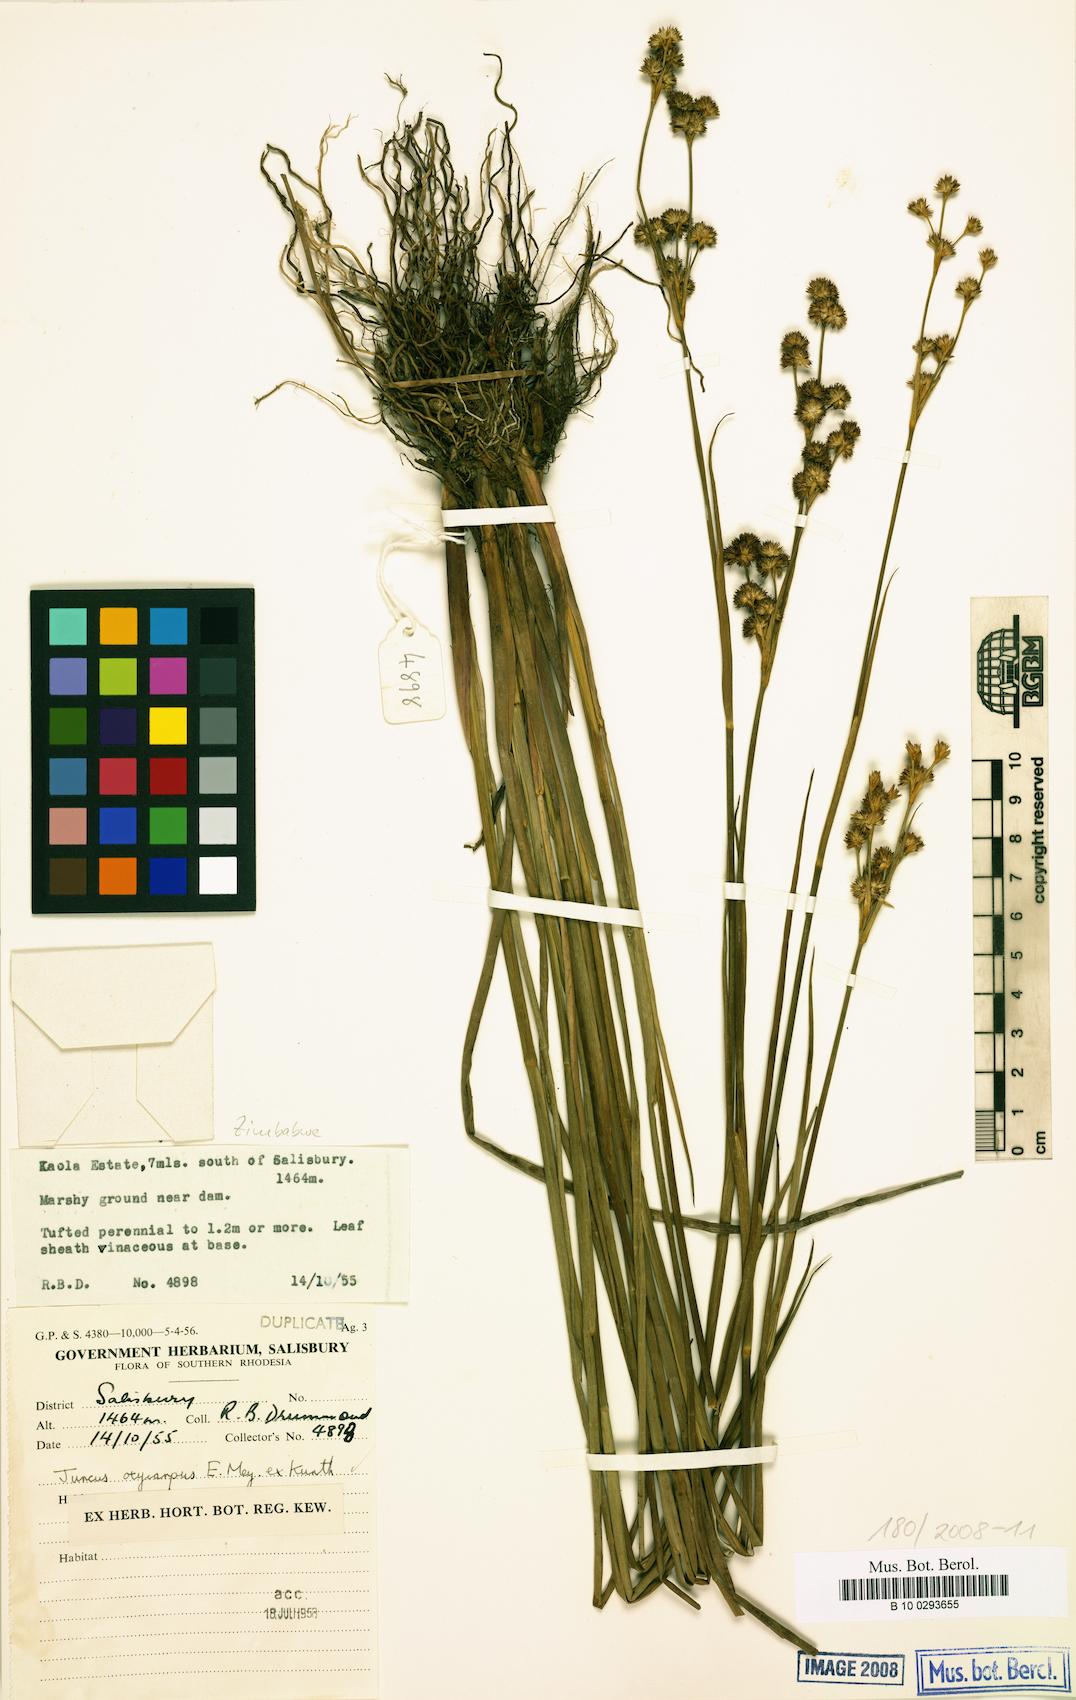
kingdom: Plantae
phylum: Tracheophyta
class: Liliopsida
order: Poales
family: Juncaceae
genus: Juncus
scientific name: Juncus oxycarpus
